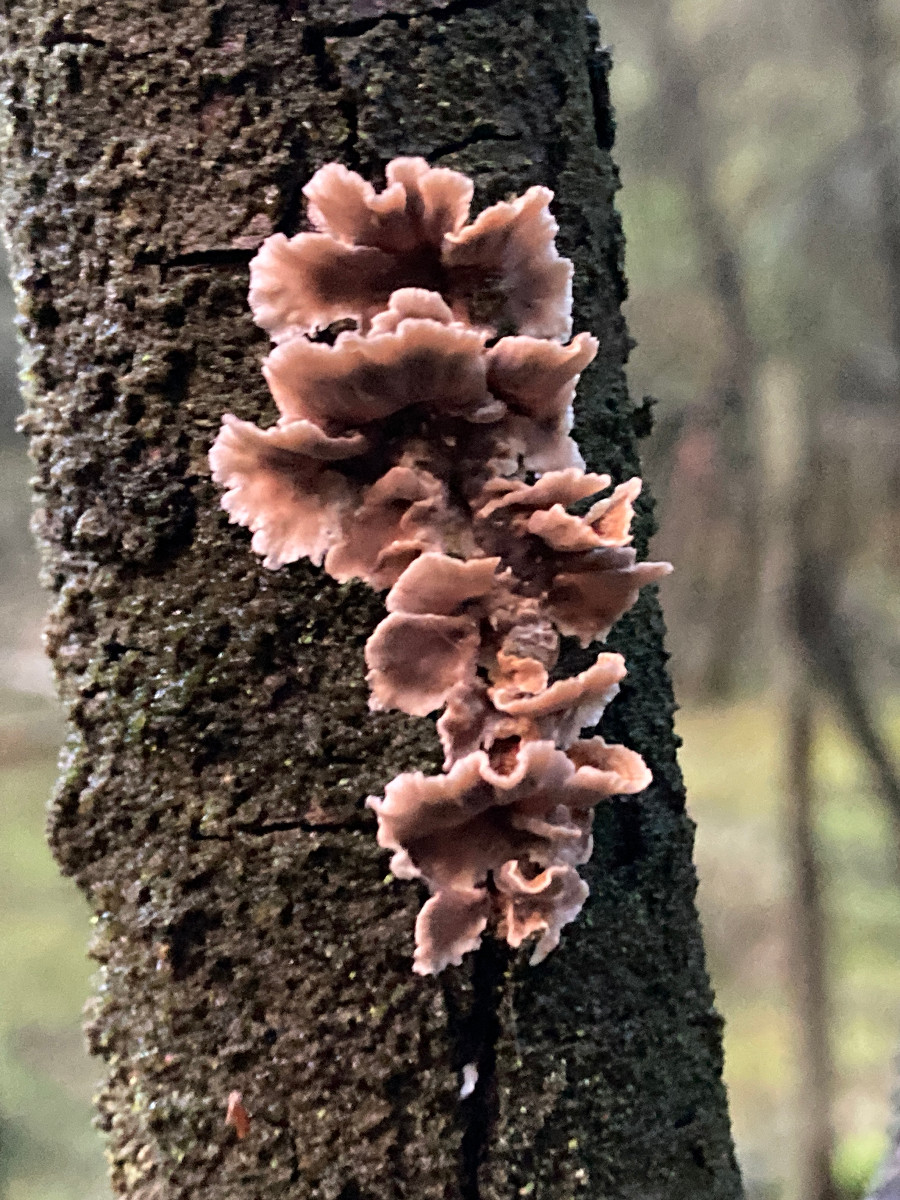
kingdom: Fungi
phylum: Basidiomycota
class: Agaricomycetes
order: Russulales
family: Stereaceae
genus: Stereum
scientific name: Stereum sanguinolentum
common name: blødende lædersvamp
